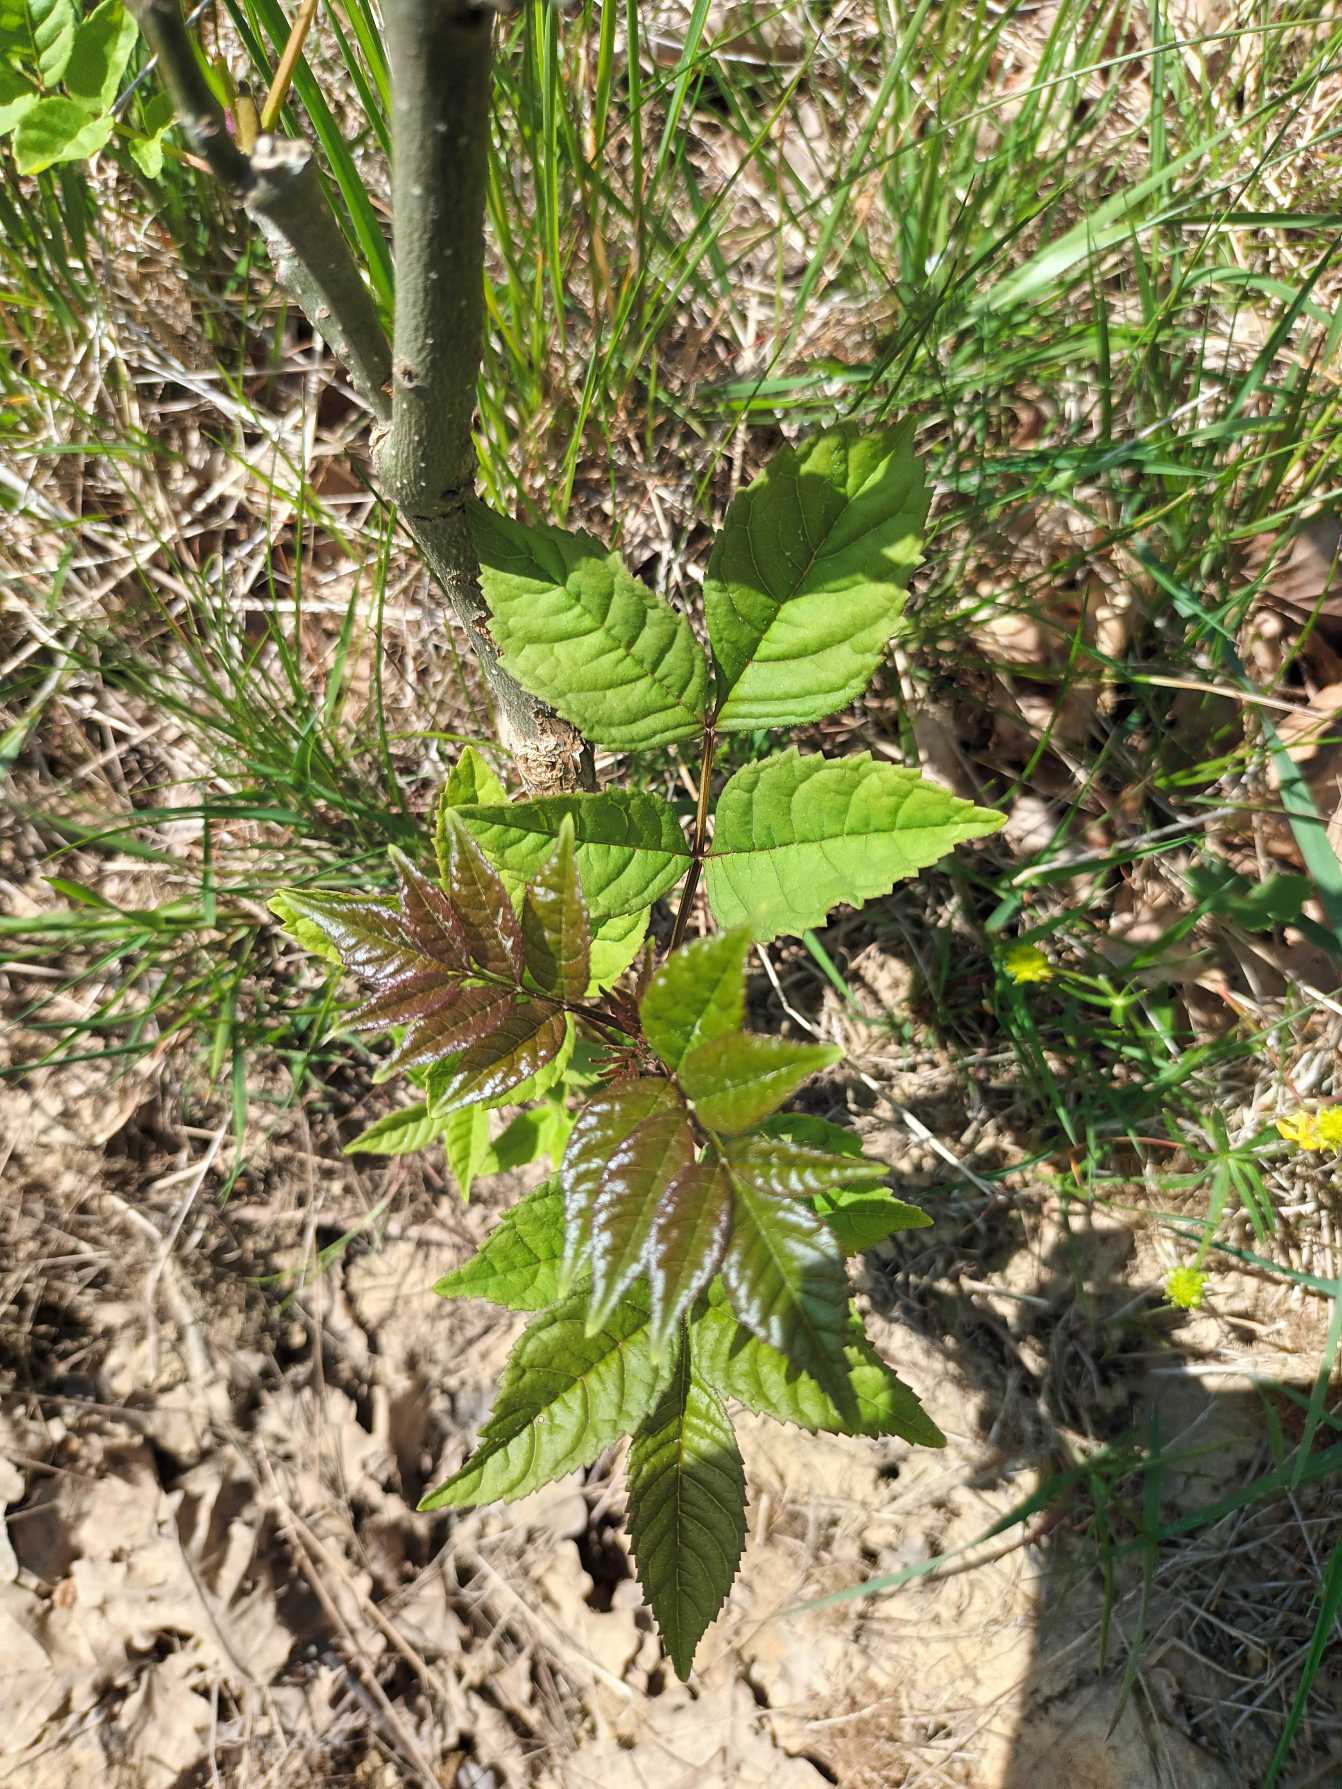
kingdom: Plantae
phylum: Tracheophyta
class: Magnoliopsida
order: Lamiales
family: Oleaceae
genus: Fraxinus
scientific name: Fraxinus excelsior
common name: Ask
